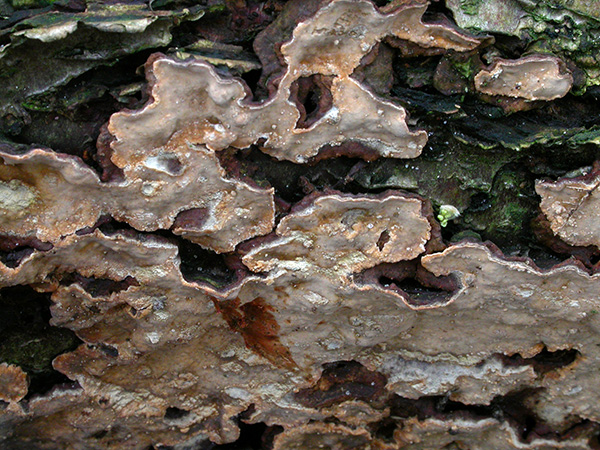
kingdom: Fungi
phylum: Basidiomycota
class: Agaricomycetes
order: Russulales
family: Stereaceae
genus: Stereum
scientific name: Stereum rugosum
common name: rynket lædersvamp
